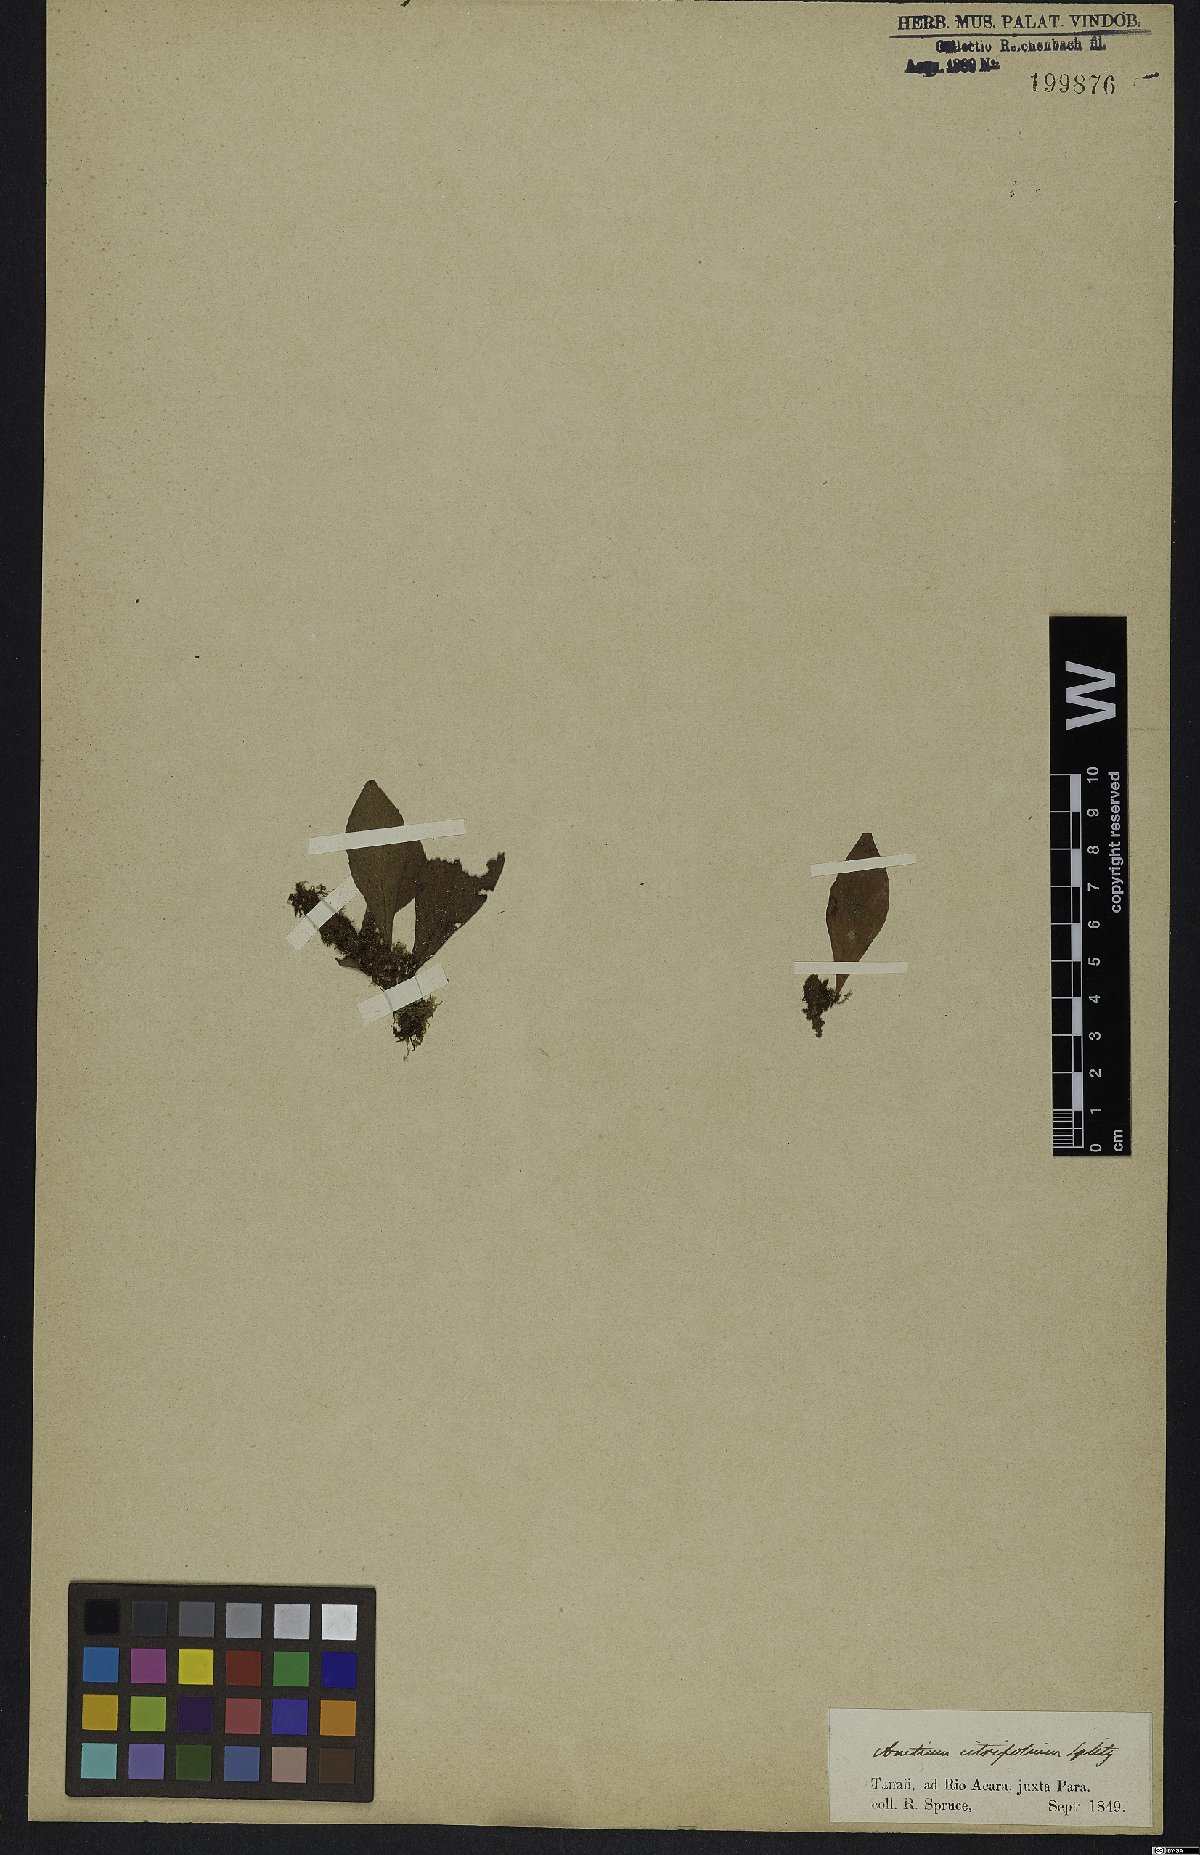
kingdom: Plantae
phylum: Tracheophyta
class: Polypodiopsida
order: Polypodiales
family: Pteridaceae
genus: Polytaenium
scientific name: Polytaenium citrifolium
